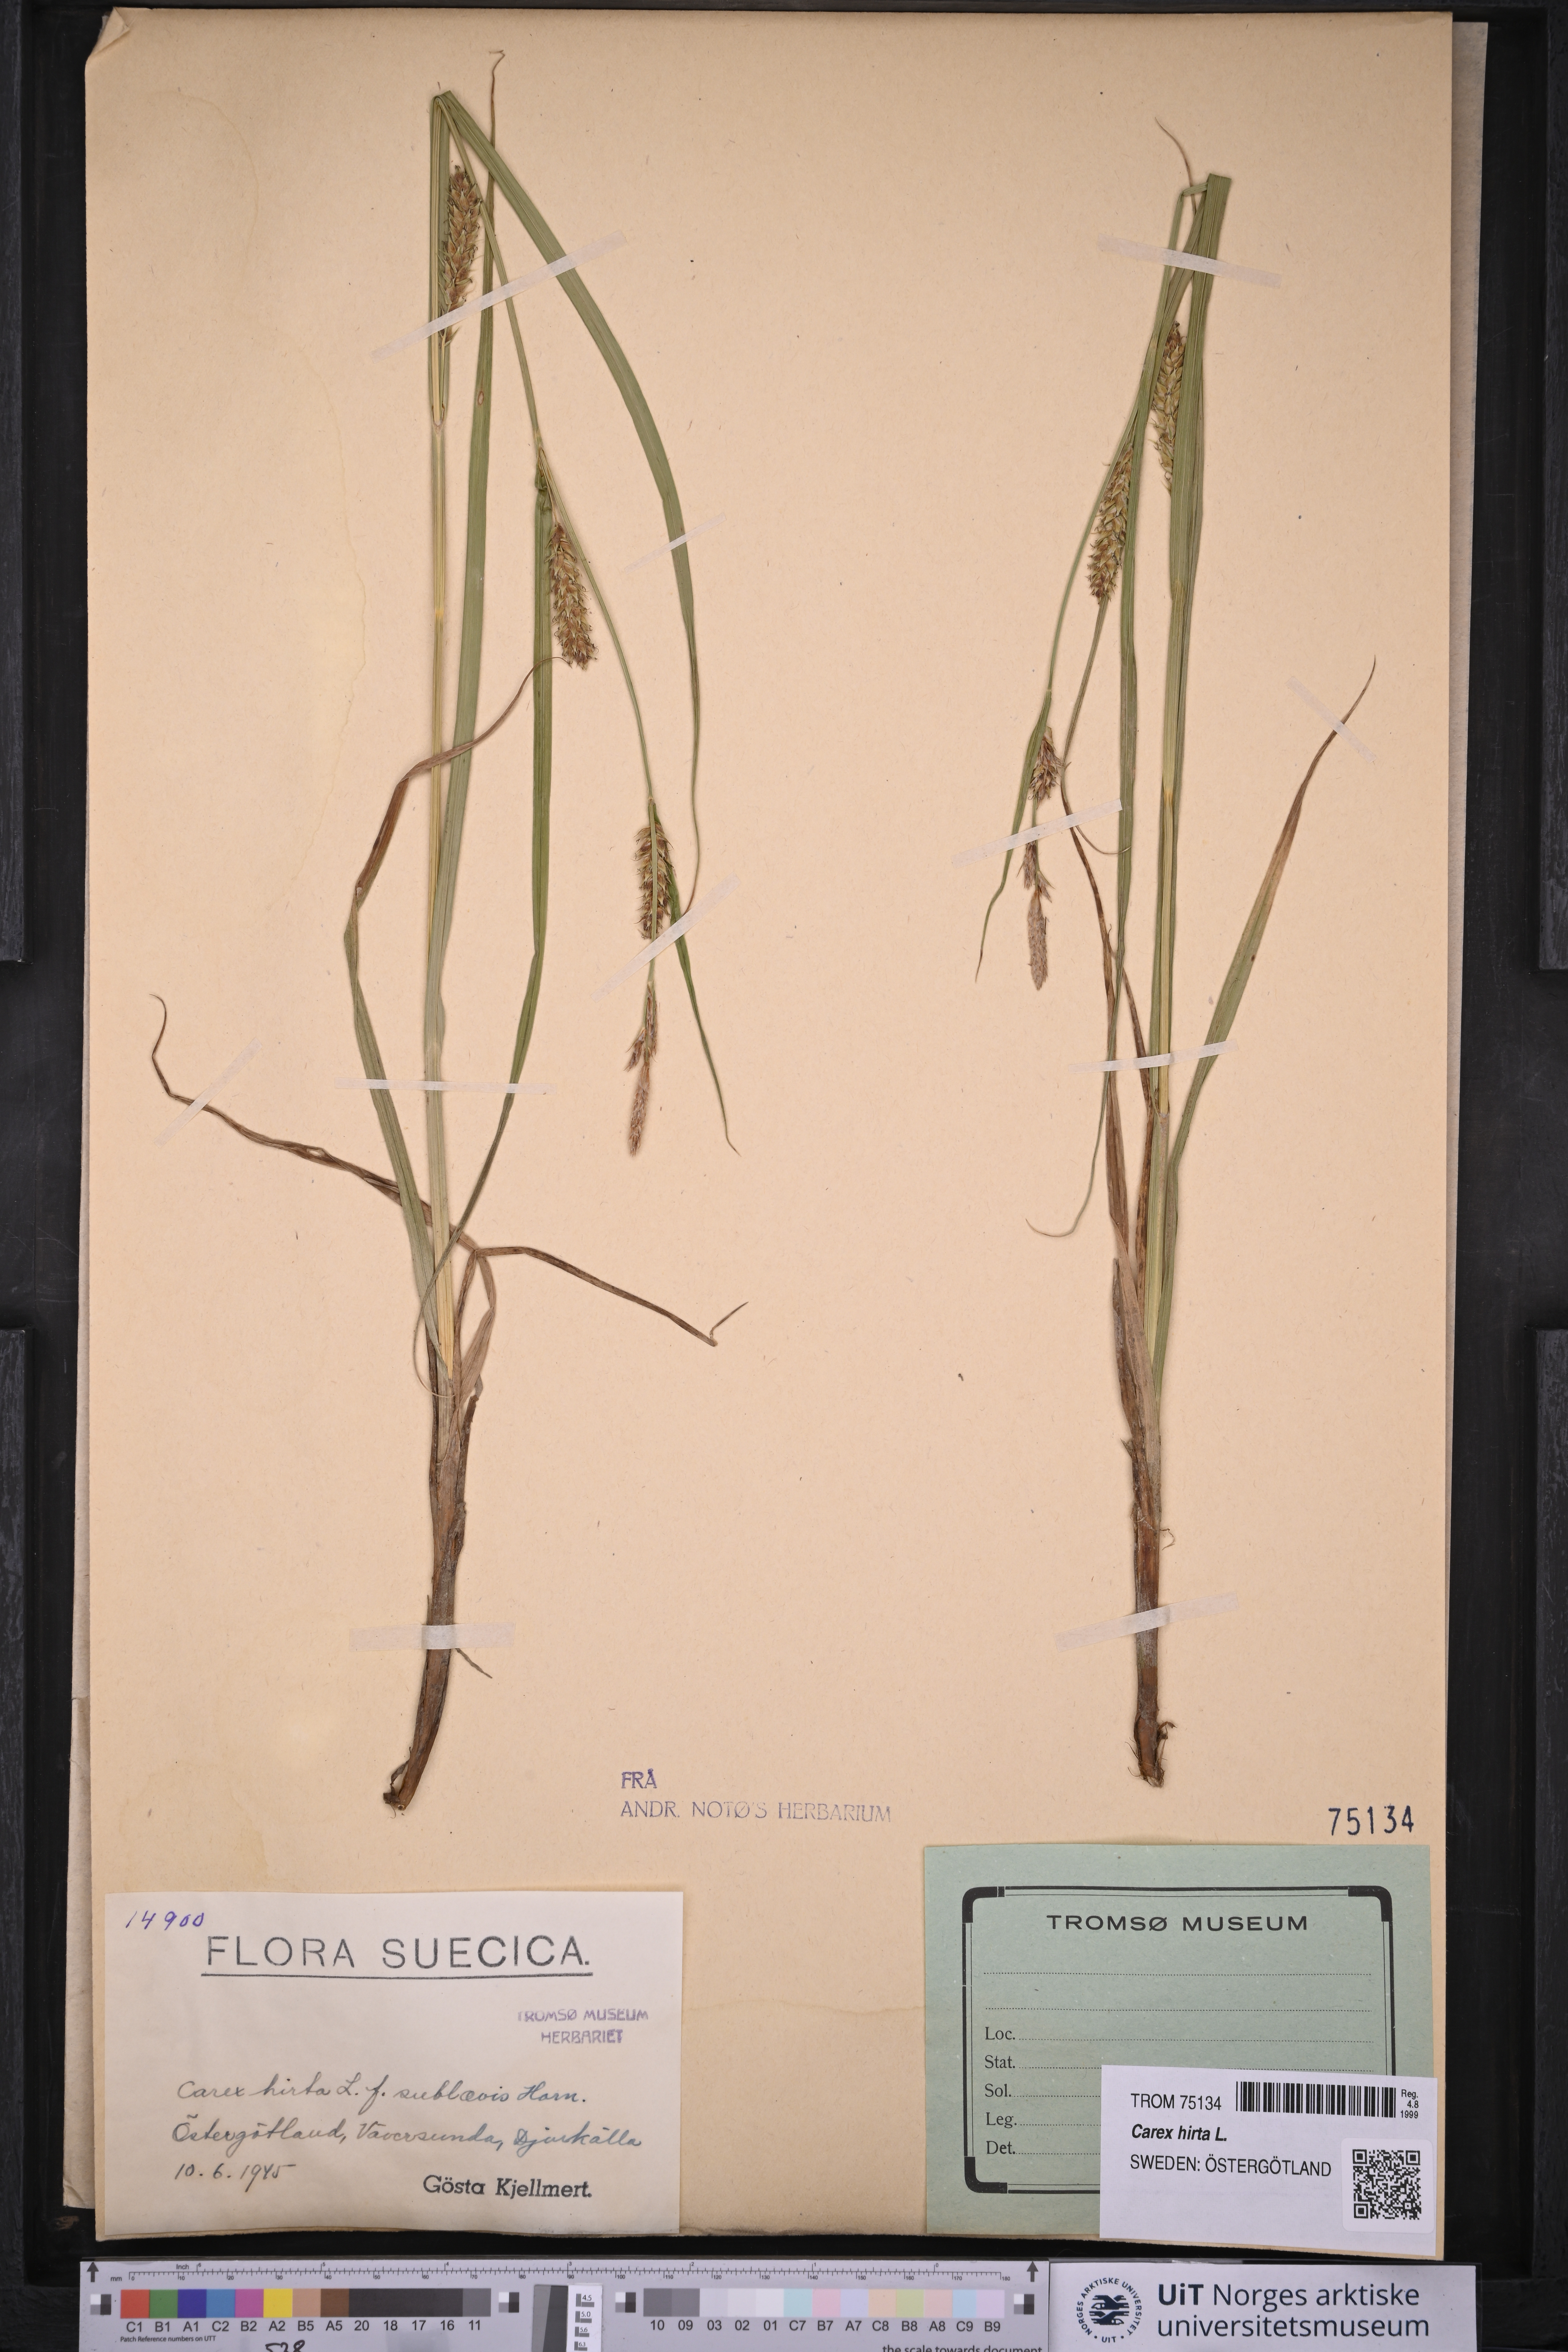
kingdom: Plantae
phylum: Tracheophyta
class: Liliopsida
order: Poales
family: Cyperaceae
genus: Carex
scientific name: Carex hirta
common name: Hairy sedge
